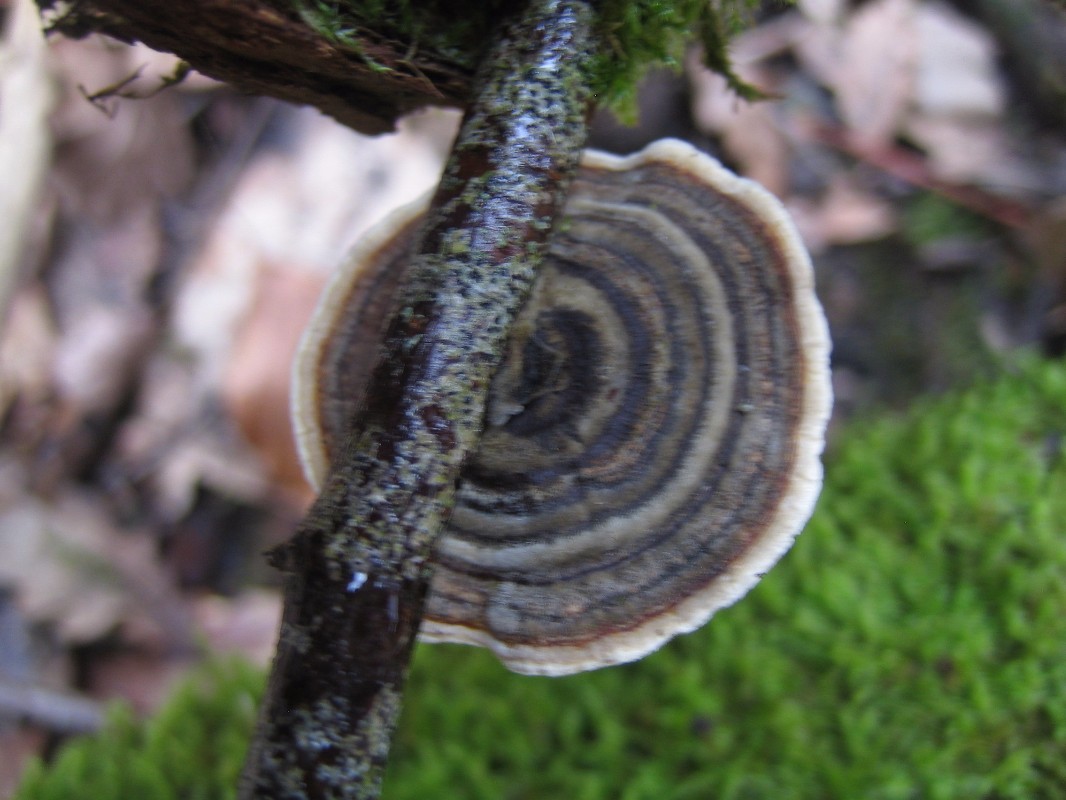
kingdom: Fungi
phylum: Basidiomycota
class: Agaricomycetes
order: Polyporales
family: Polyporaceae
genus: Trametes
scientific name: Trametes versicolor
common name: broget læderporesvamp
